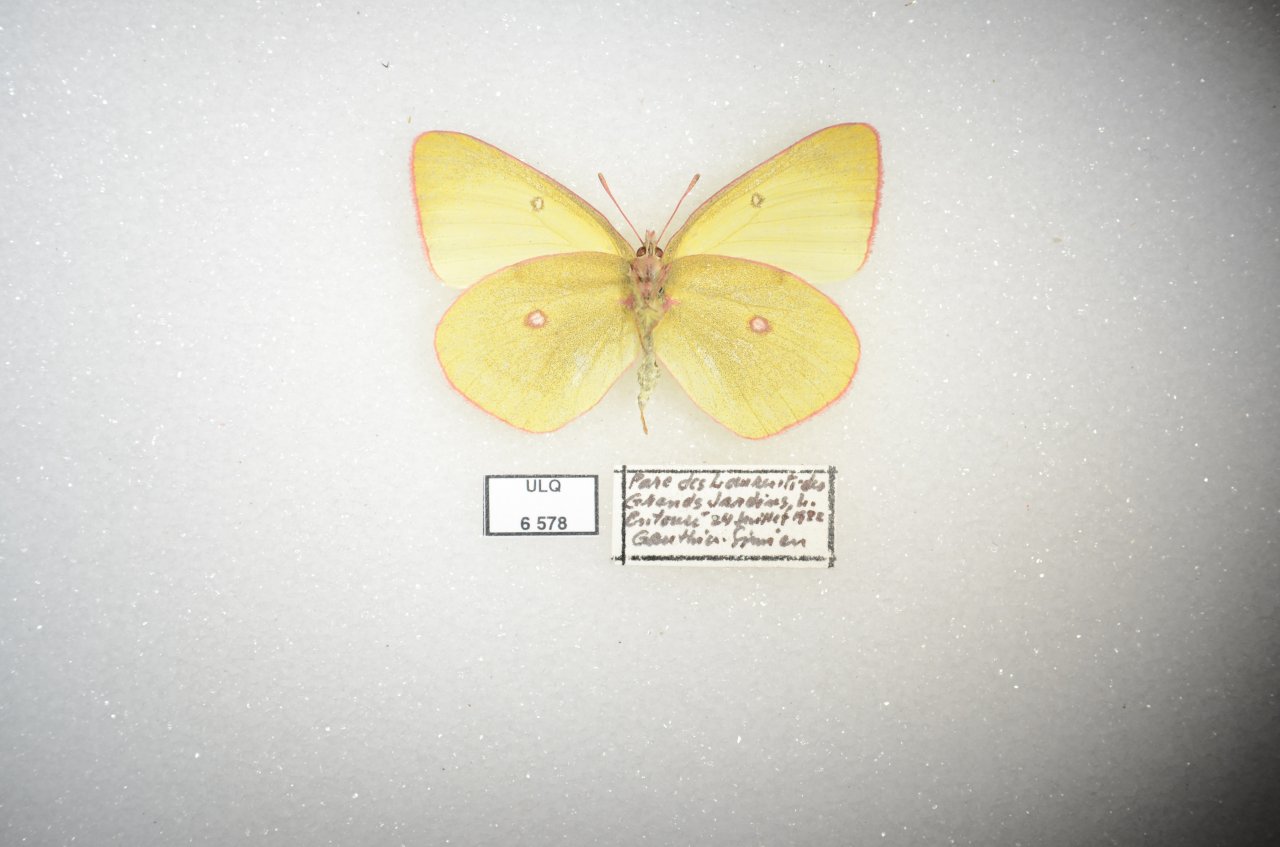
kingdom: Animalia
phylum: Arthropoda
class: Insecta
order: Lepidoptera
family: Pieridae
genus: Colias
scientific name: Colias interior
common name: Pink-edged Sulphur
